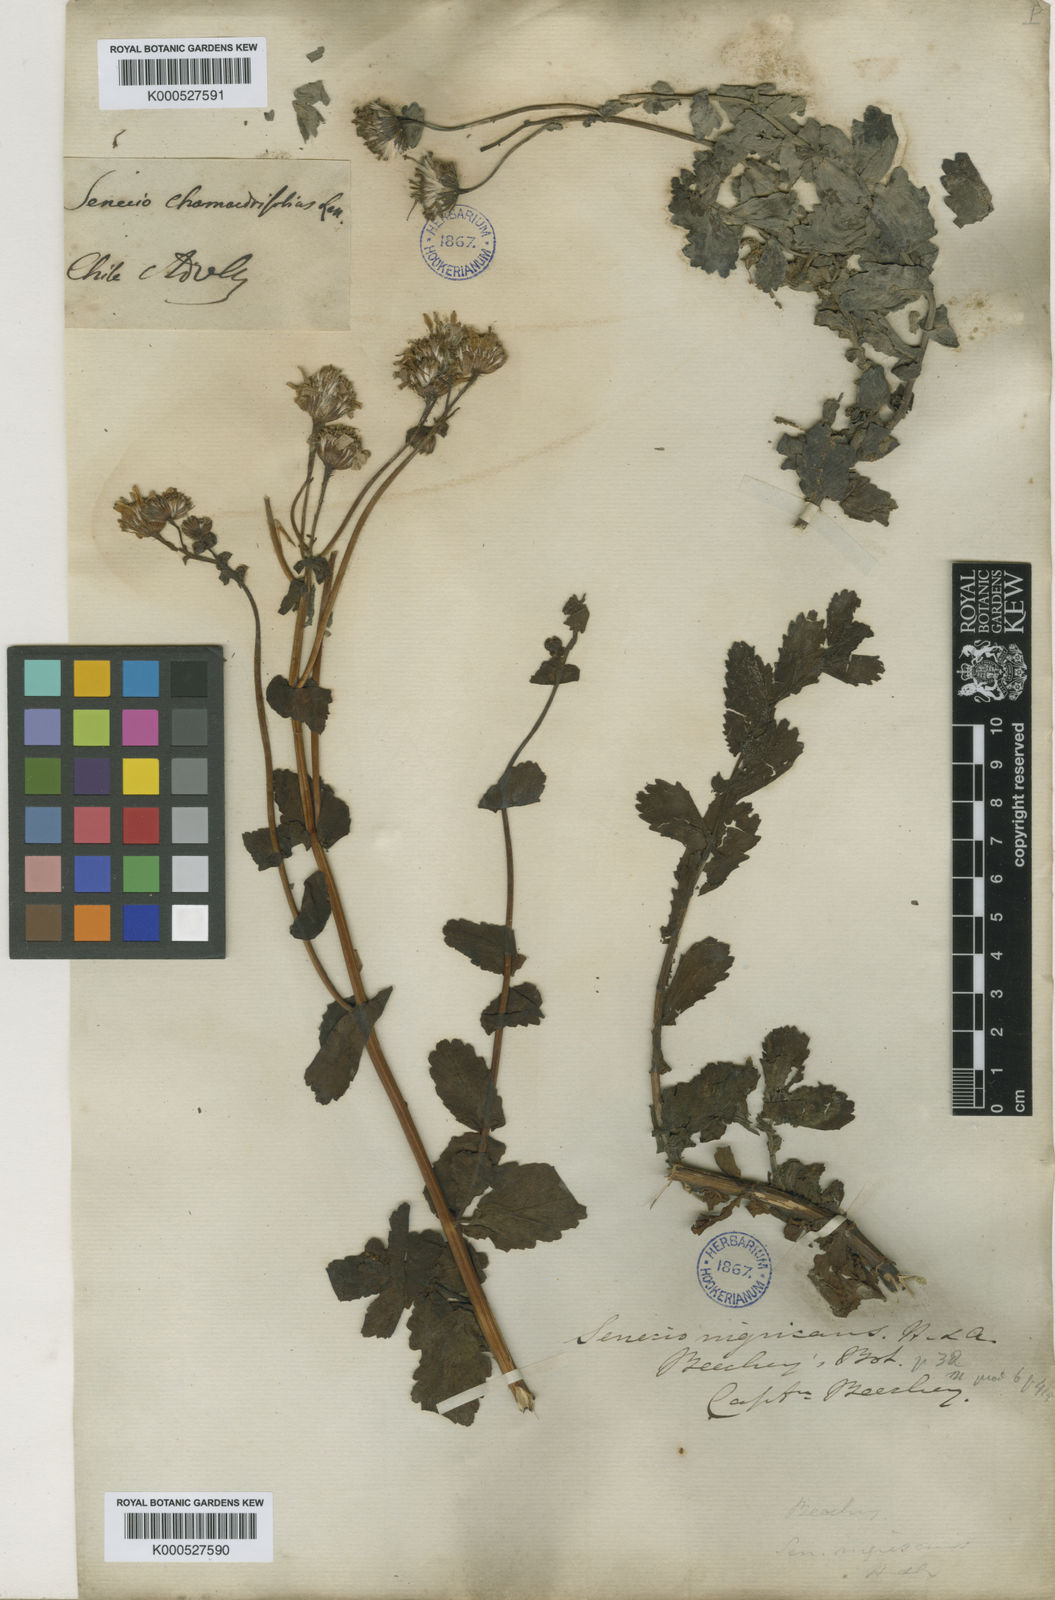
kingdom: Plantae
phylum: Tracheophyta
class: Magnoliopsida
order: Asterales
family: Asteraceae
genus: Senecio
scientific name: Senecio nigrescens
